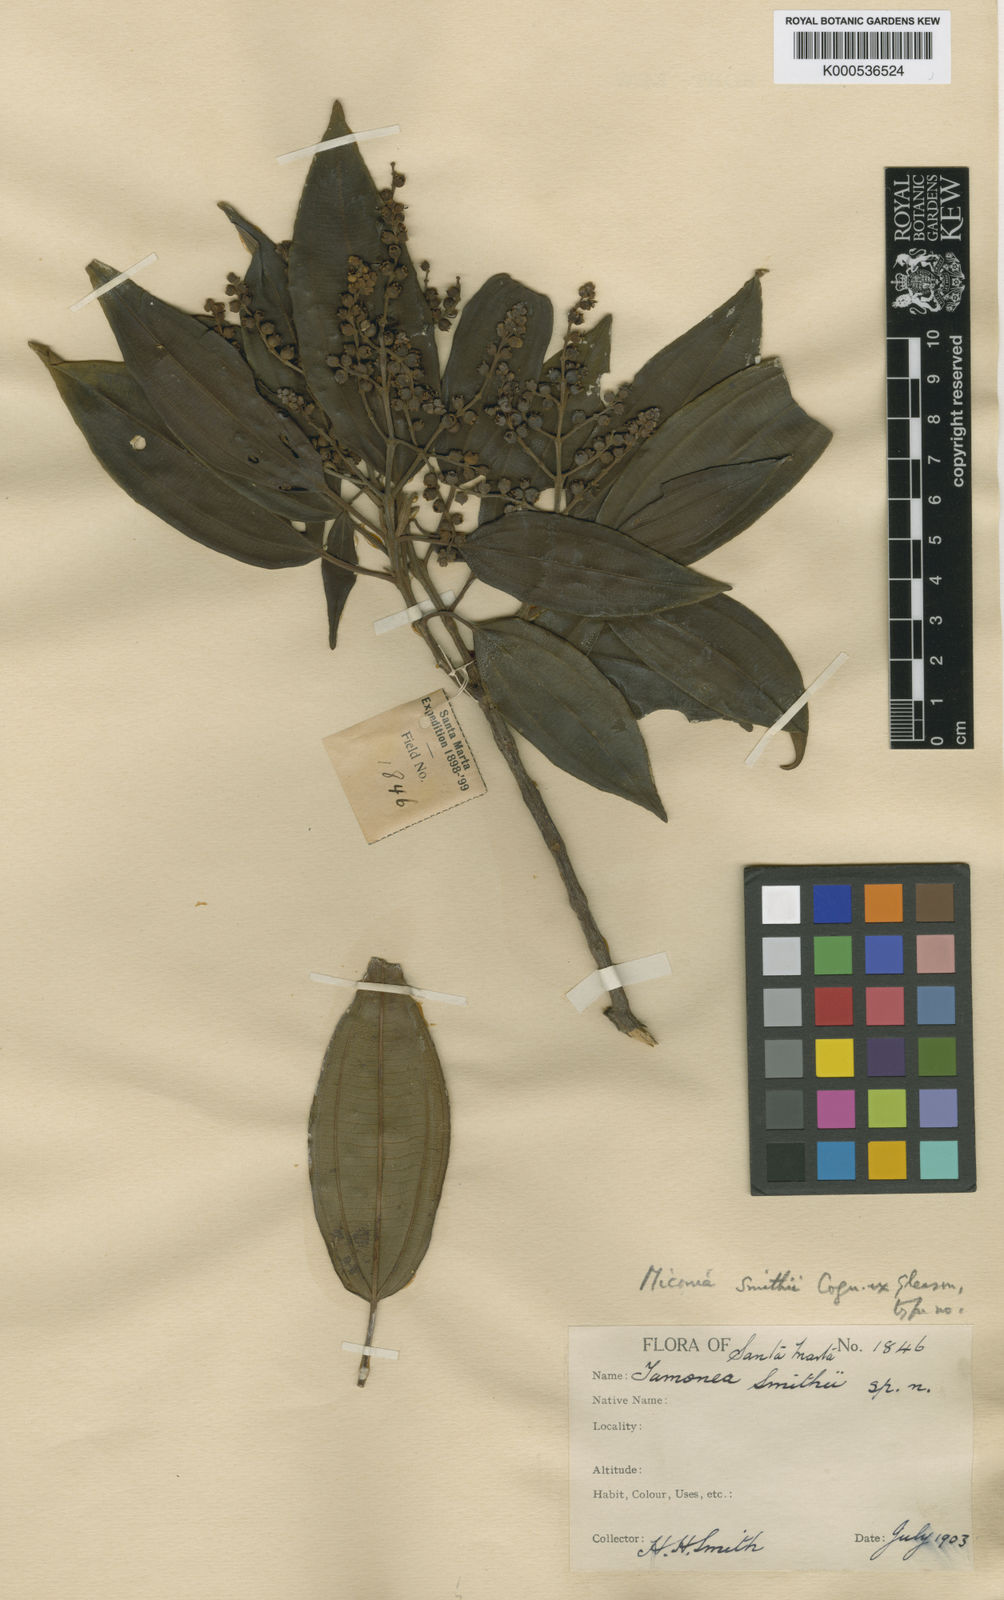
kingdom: Plantae
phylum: Tracheophyta
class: Magnoliopsida
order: Myrtales
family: Melastomataceae
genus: Miconia
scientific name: Miconia smithii
